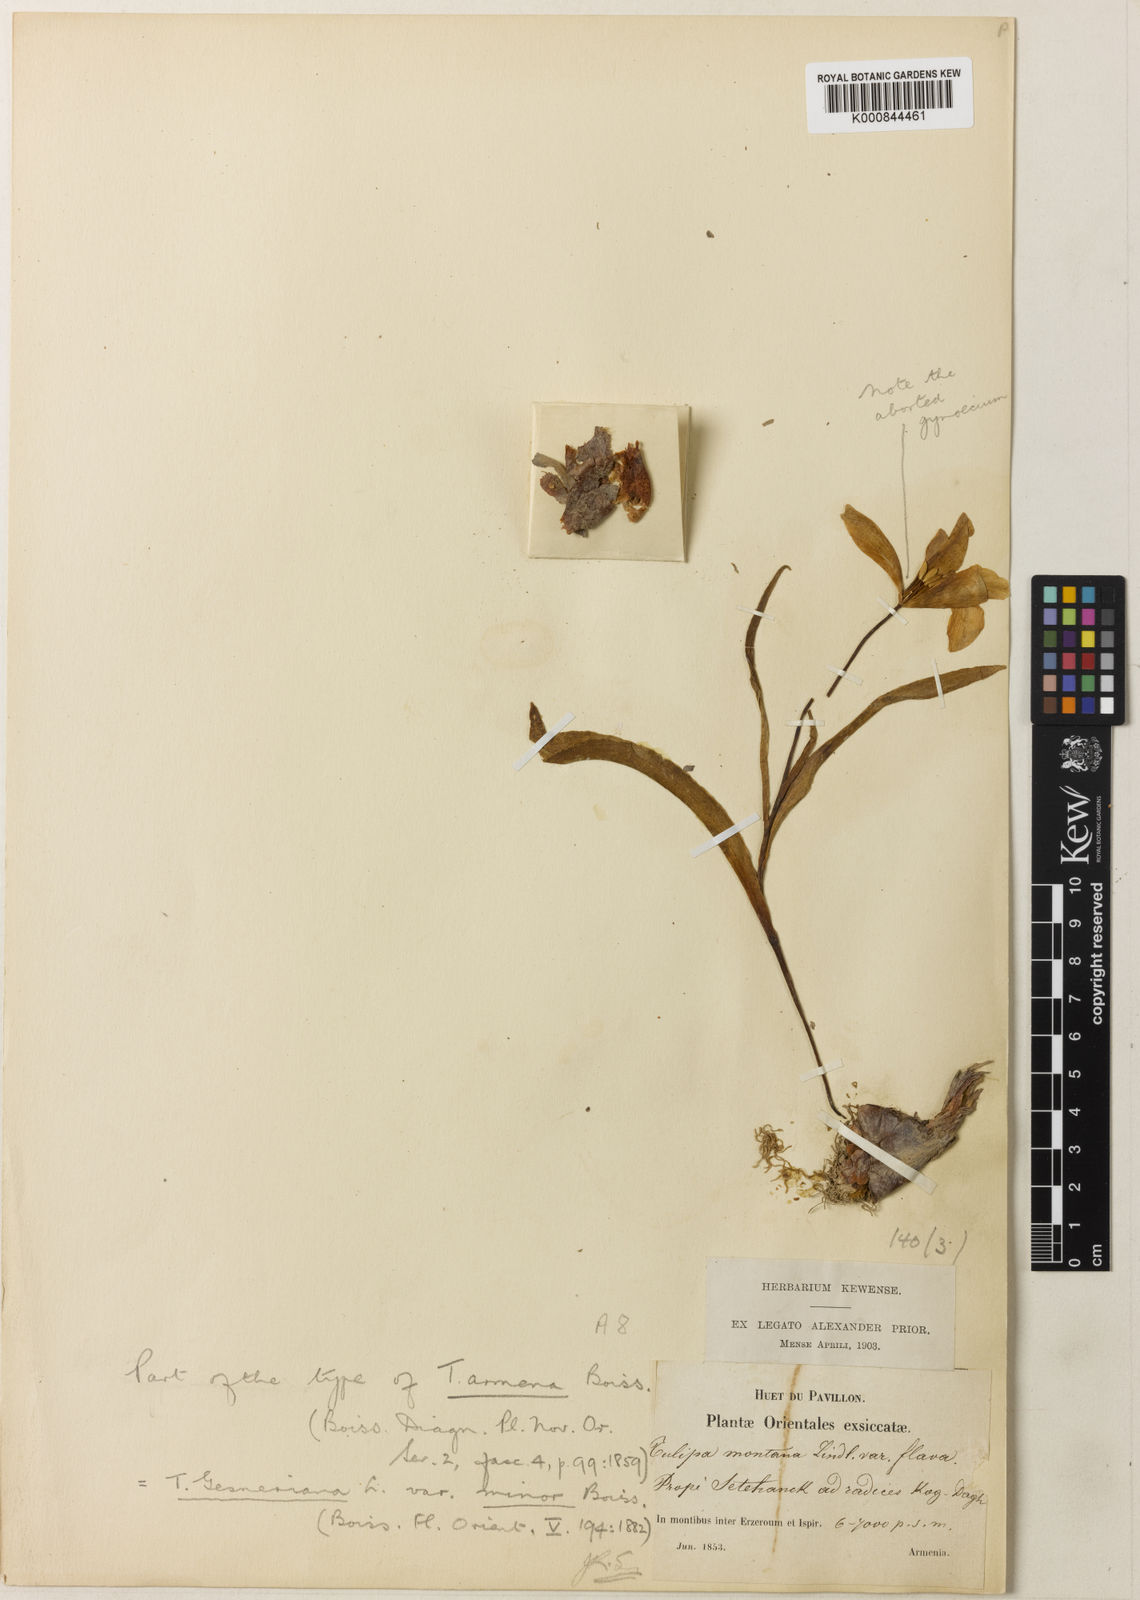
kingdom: Plantae
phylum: Tracheophyta
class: Liliopsida
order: Liliales
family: Liliaceae
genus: Tulipa
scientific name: Tulipa armena
